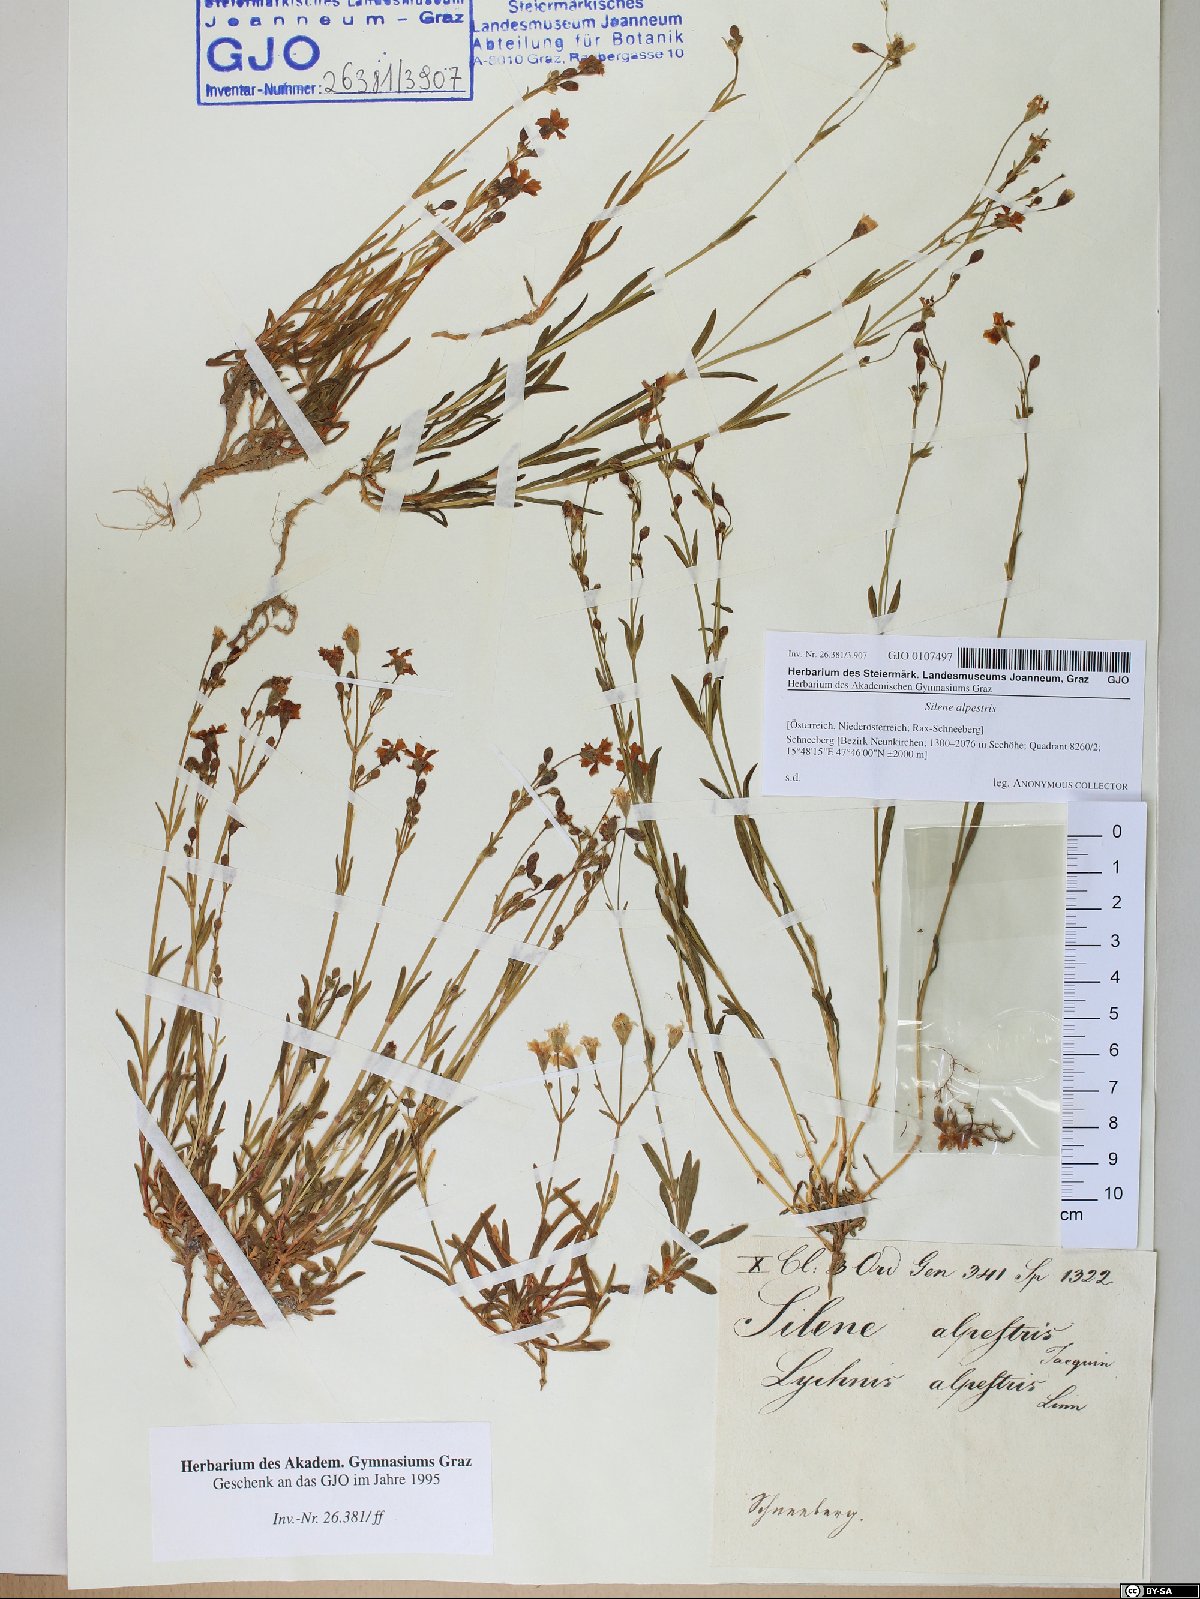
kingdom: Plantae
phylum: Tracheophyta
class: Magnoliopsida
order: Caryophyllales
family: Caryophyllaceae
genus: Heliosperma
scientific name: Heliosperma alpestre
